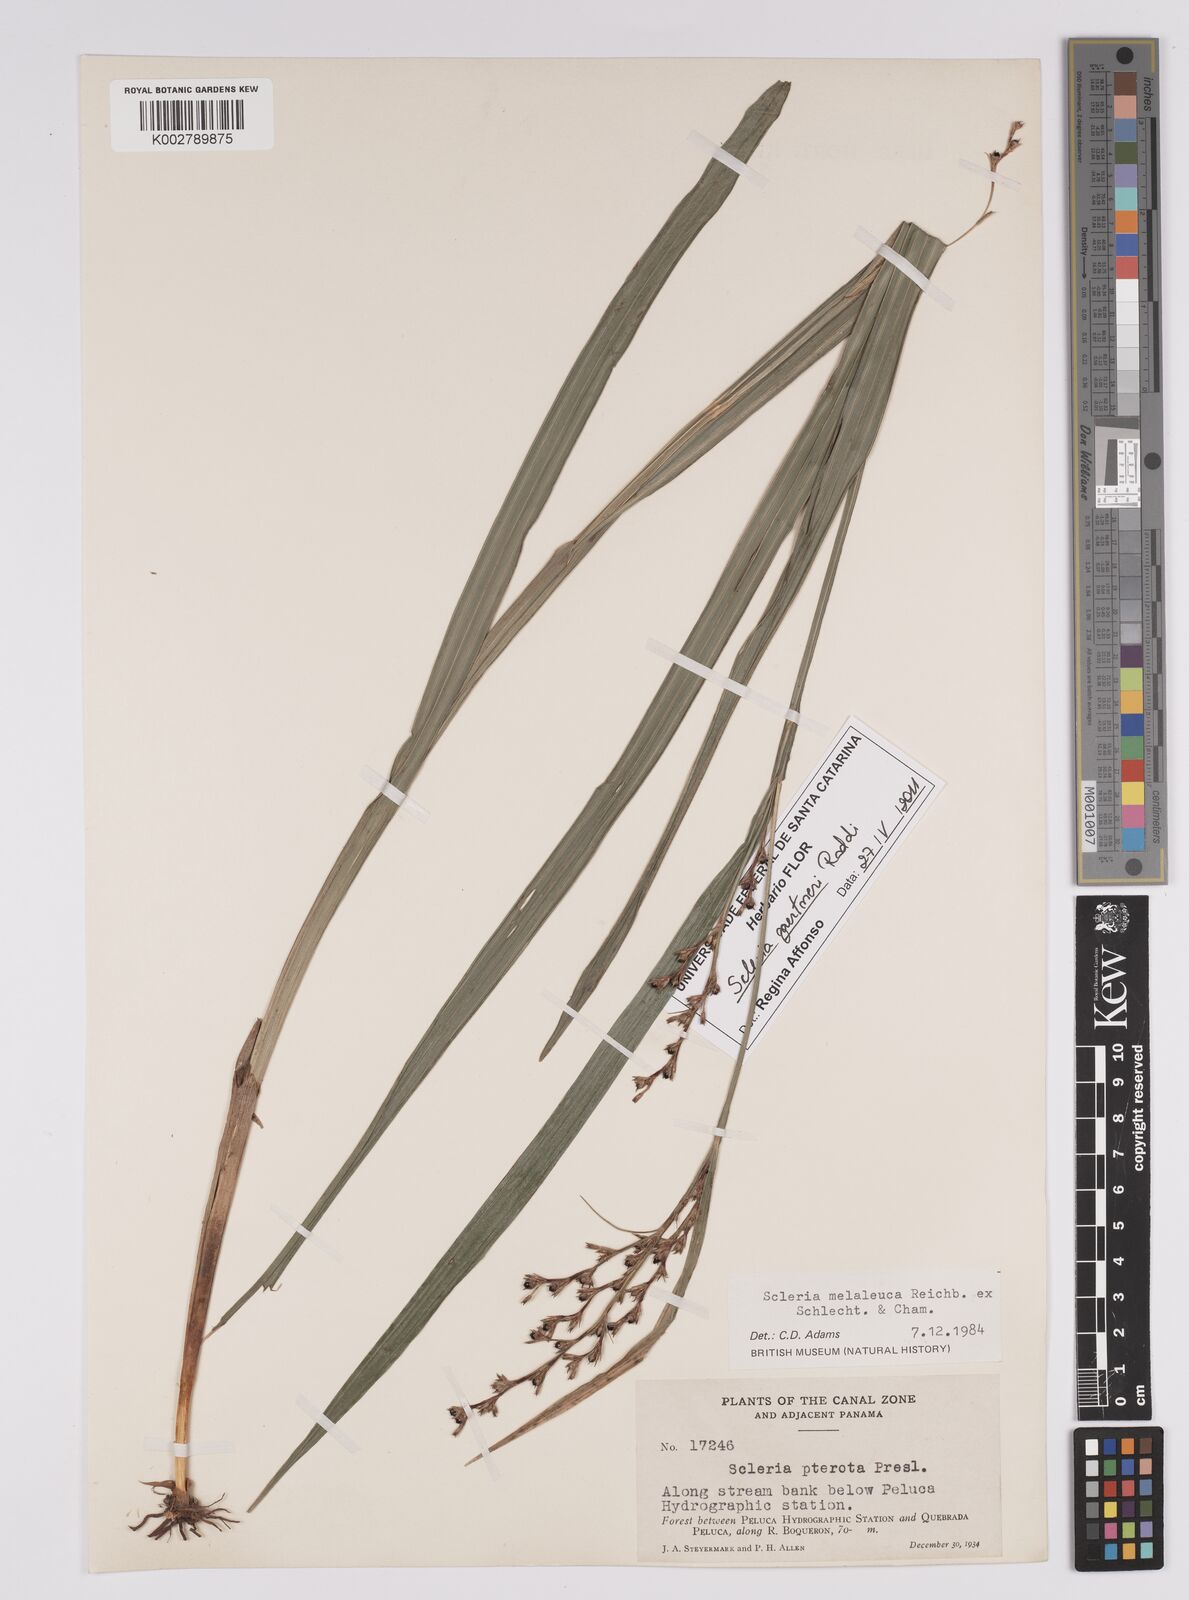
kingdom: Plantae
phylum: Tracheophyta
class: Liliopsida
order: Poales
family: Cyperaceae
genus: Scleria
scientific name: Scleria gaertneri
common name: Cortadera blanca
